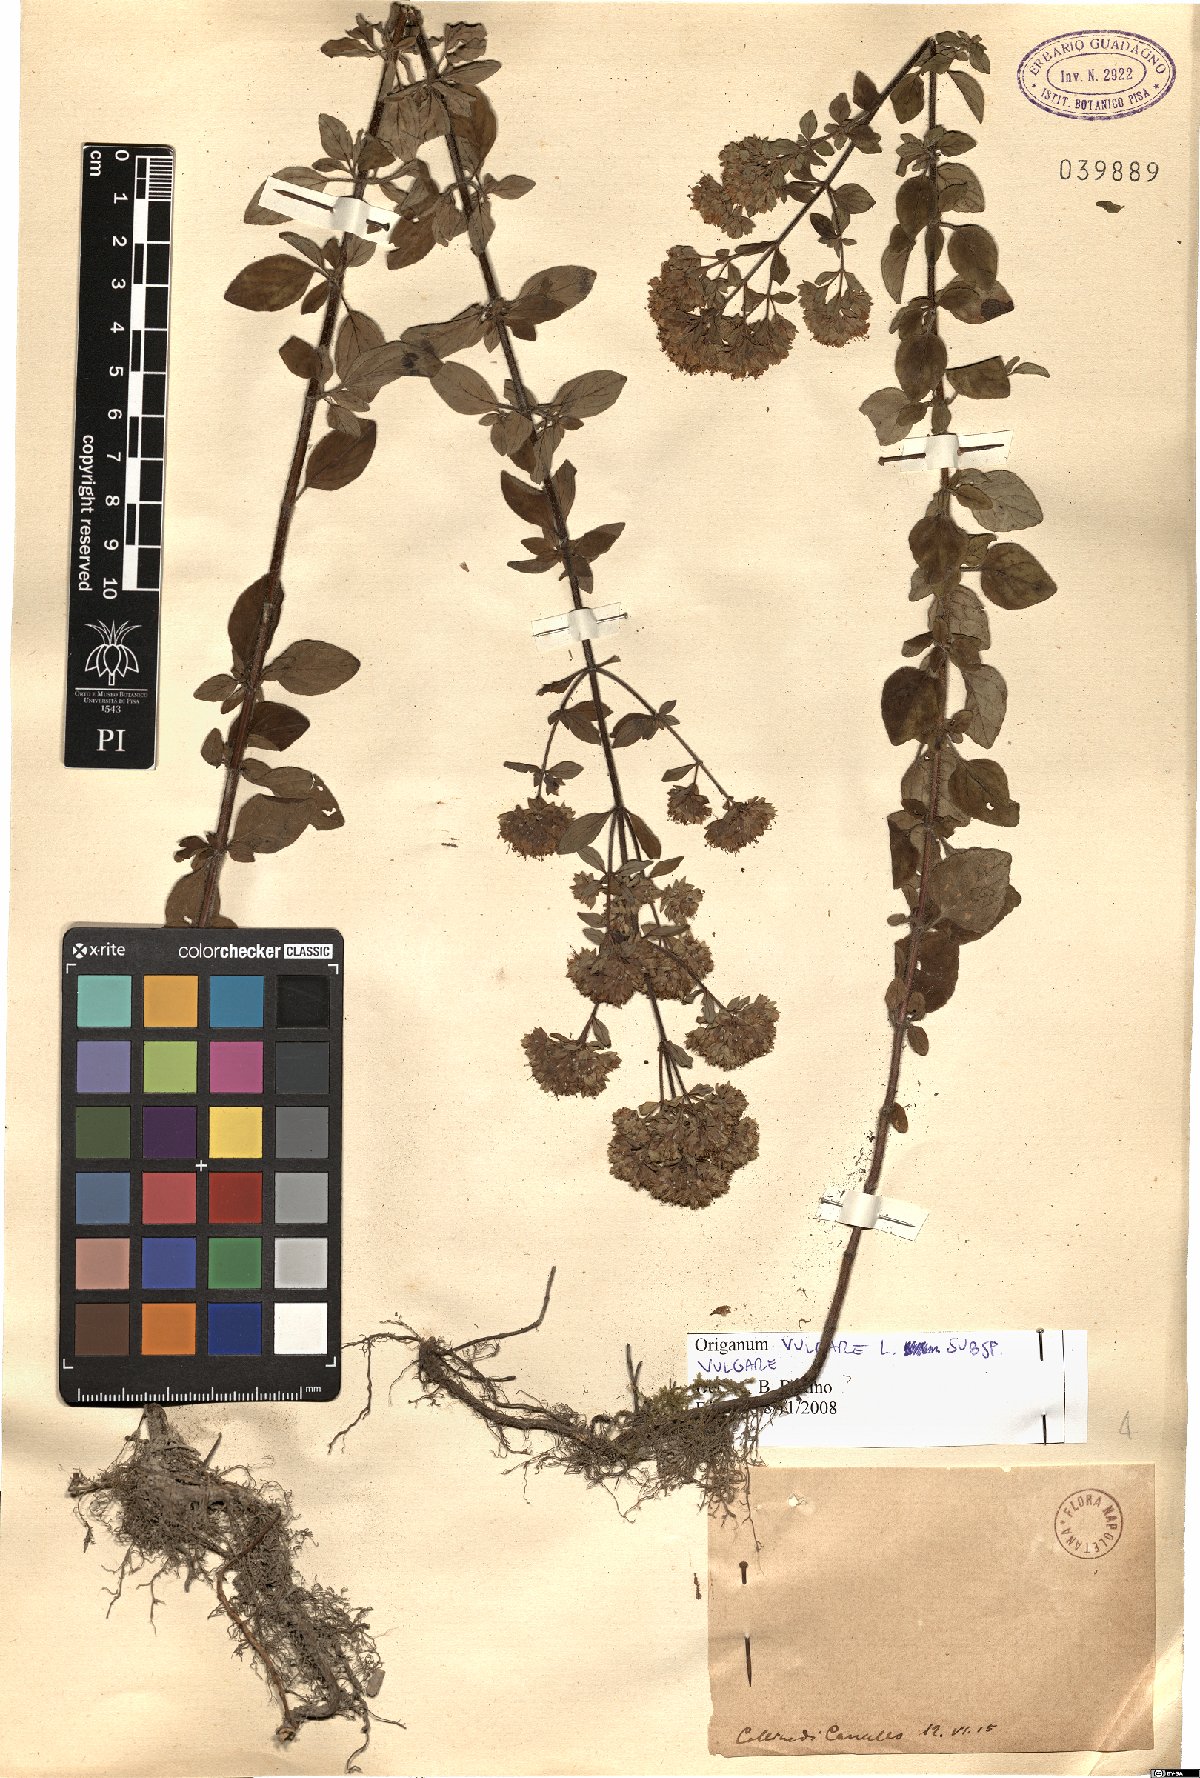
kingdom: Plantae
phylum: Tracheophyta
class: Magnoliopsida
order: Lamiales
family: Lamiaceae
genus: Origanum
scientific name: Origanum vulgare
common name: Wild marjoram
